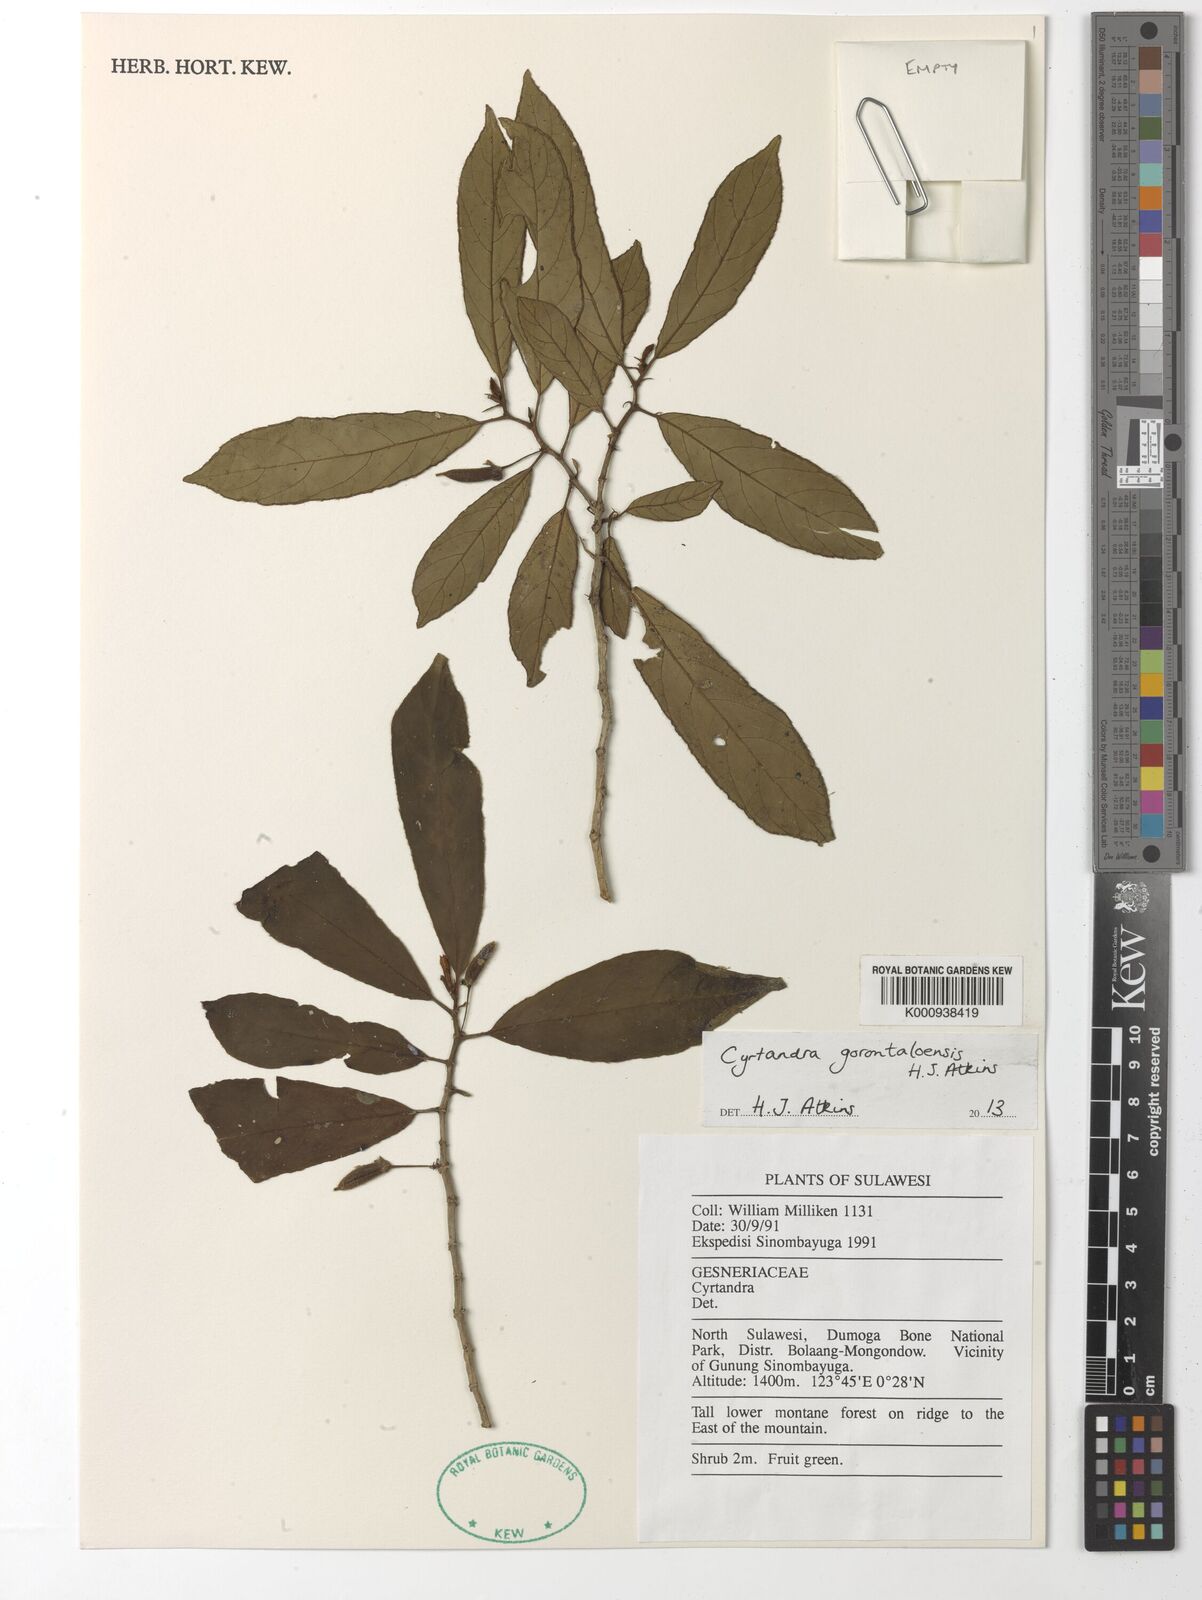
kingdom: Plantae
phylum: Tracheophyta
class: Magnoliopsida
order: Lamiales
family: Gesneriaceae
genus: Cyrtandra
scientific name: Cyrtandra gorontaloensis
